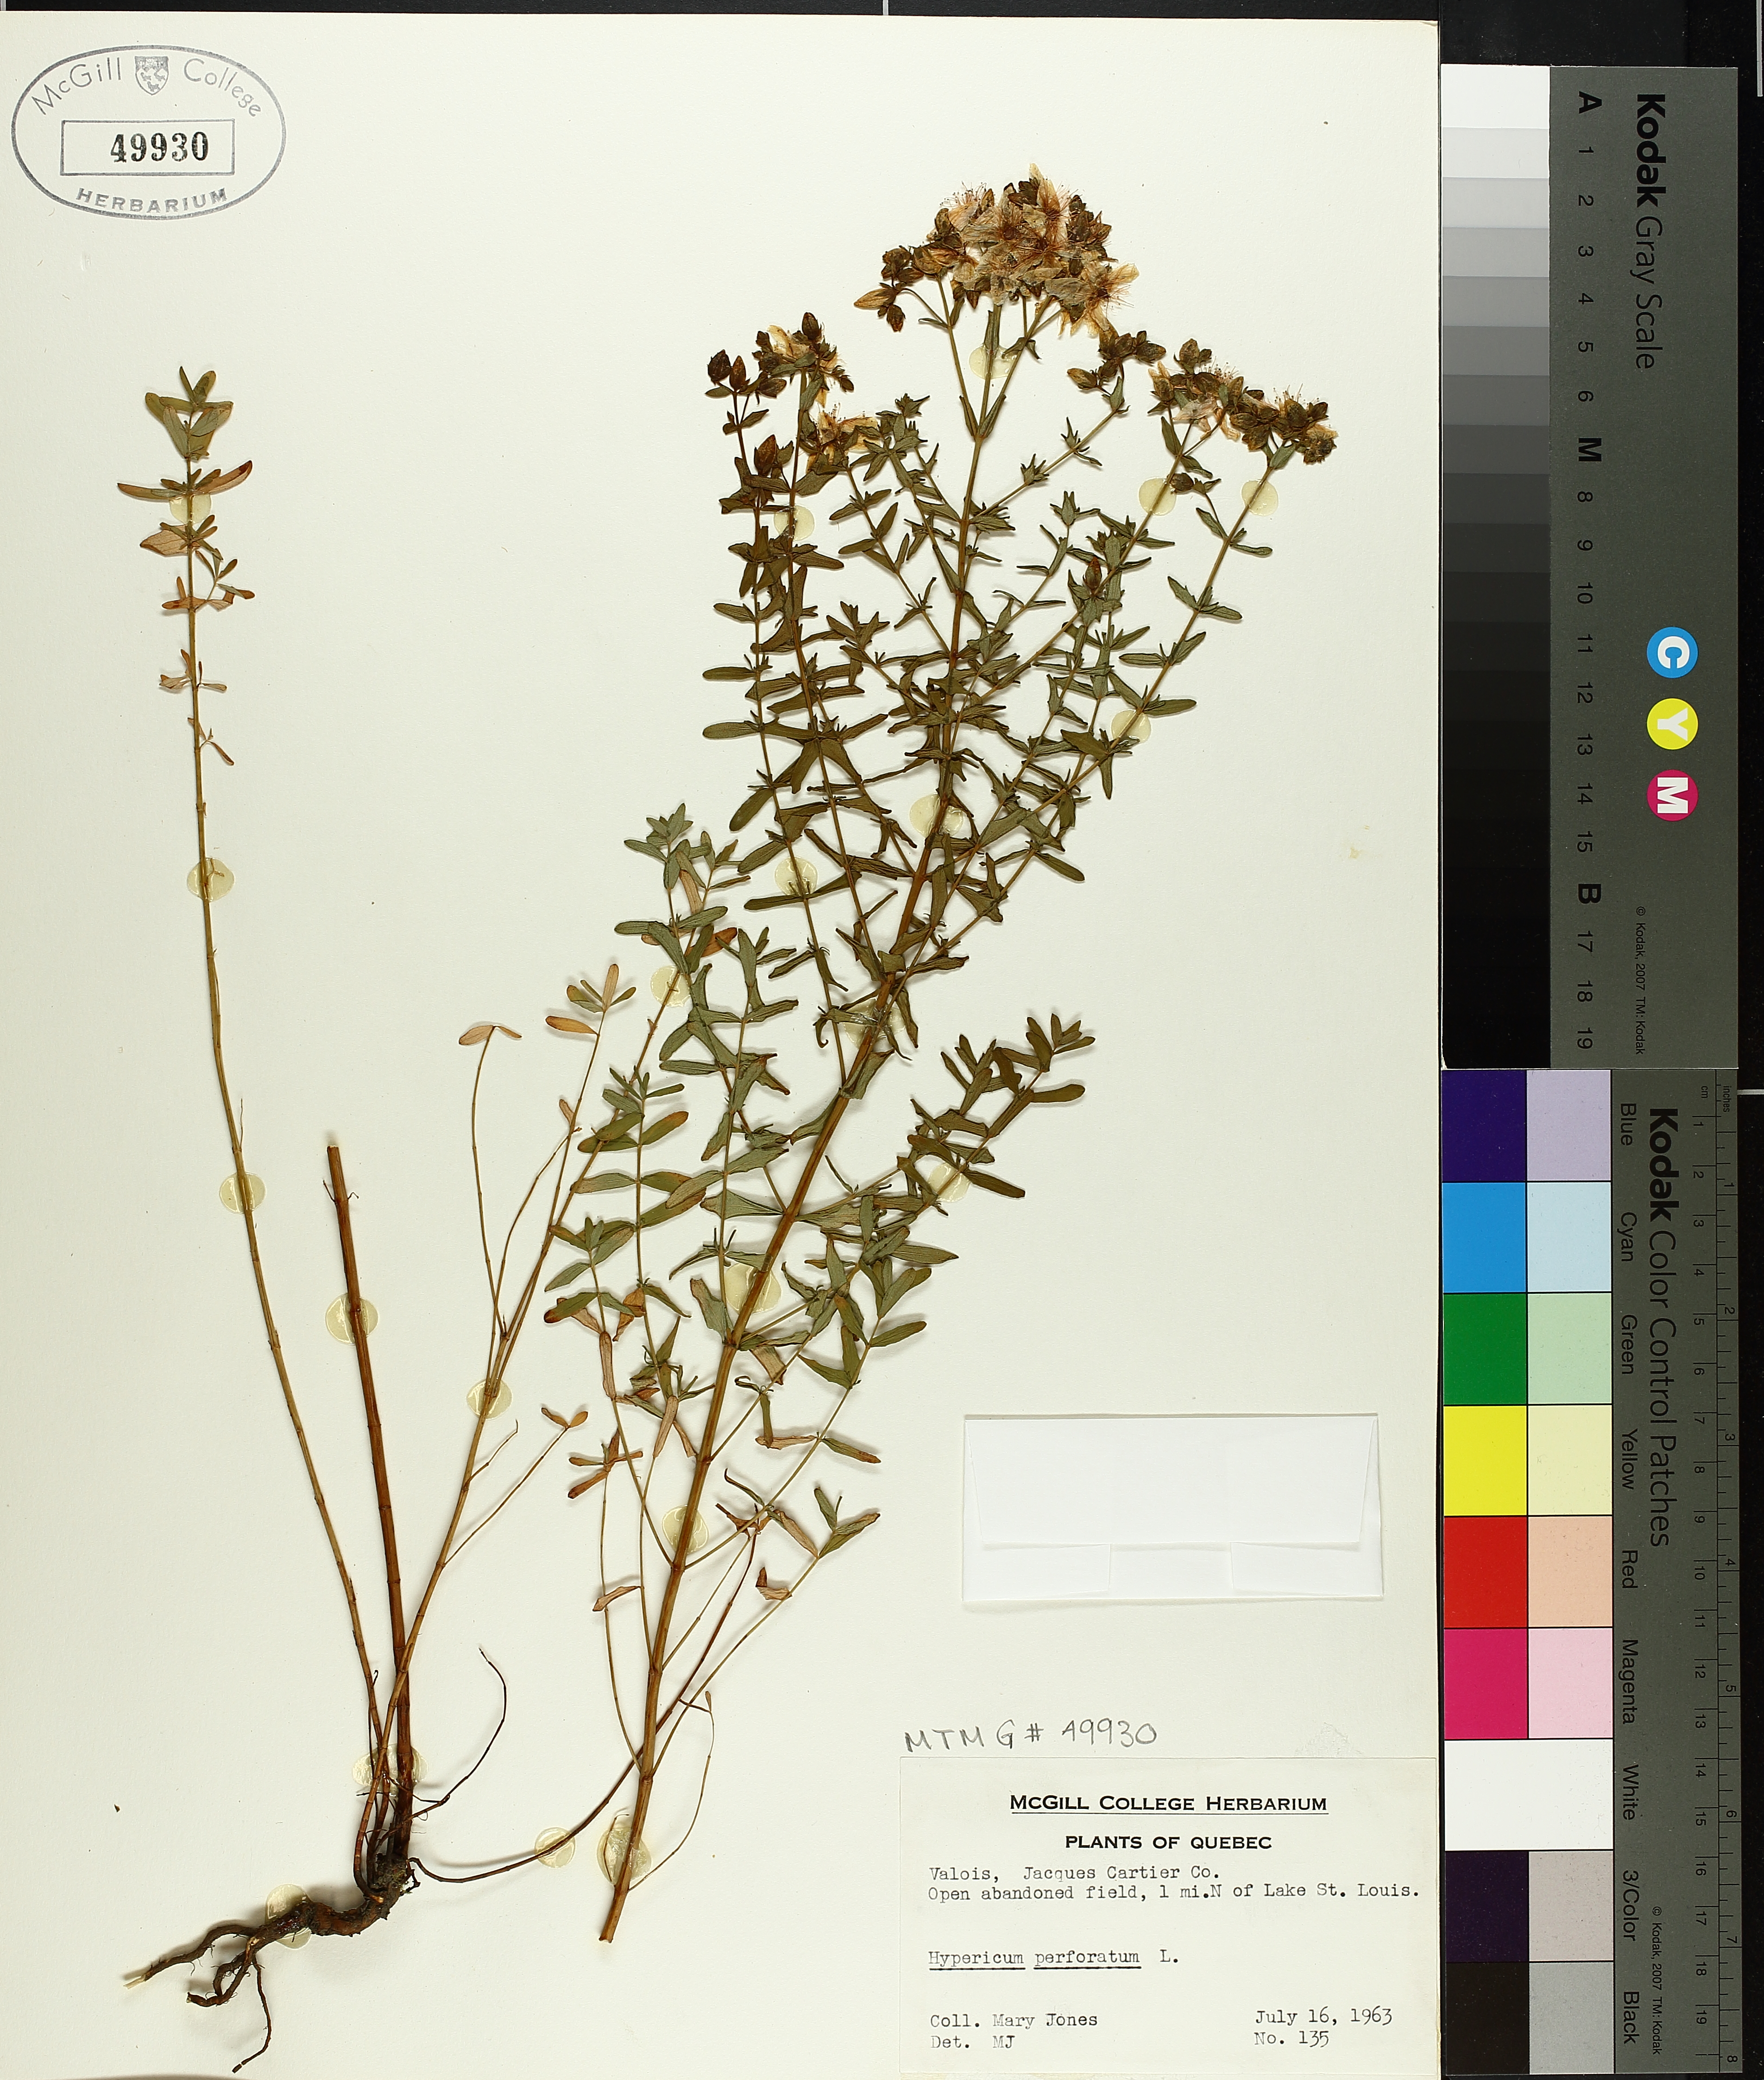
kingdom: Plantae
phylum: Tracheophyta
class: Magnoliopsida
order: Malpighiales
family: Hypericaceae
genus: Hypericum
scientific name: Hypericum perforatum
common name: Common st. johnswort
